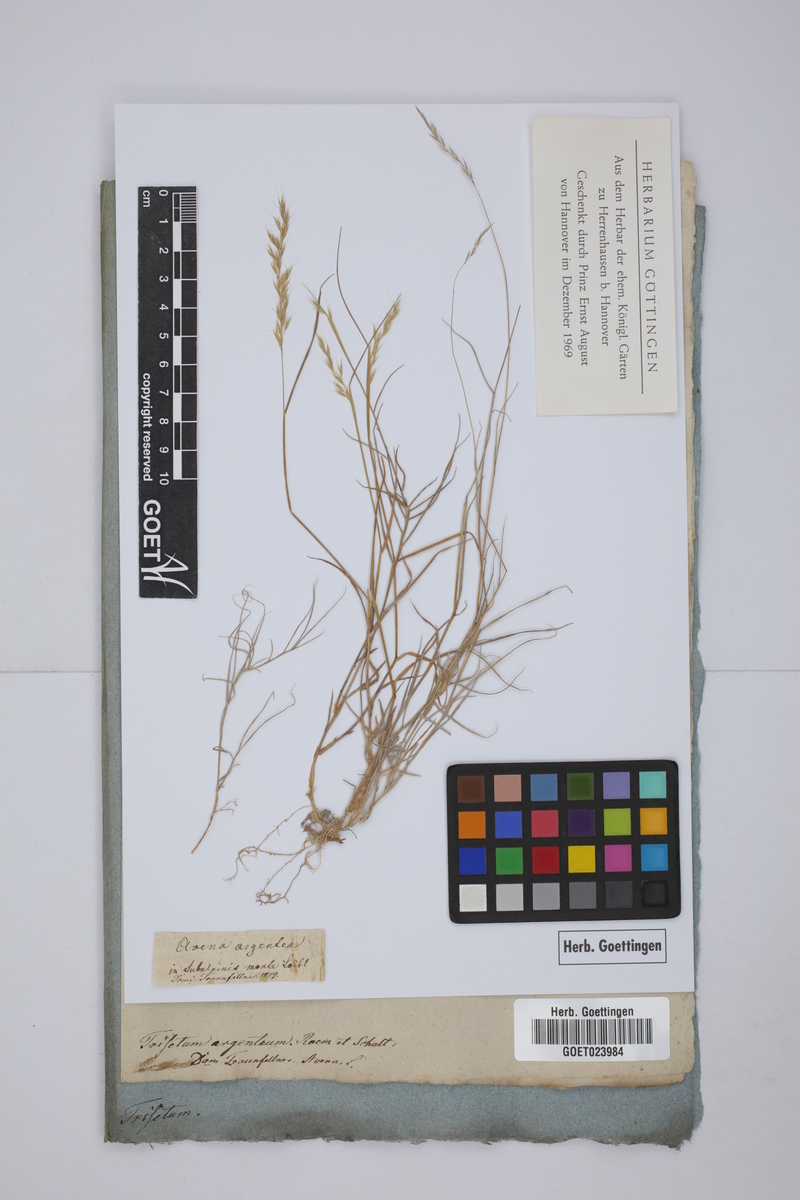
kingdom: Plantae
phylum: Tracheophyta
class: Liliopsida
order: Poales
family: Poaceae
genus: Trisetum
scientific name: Trisetum argenteum
